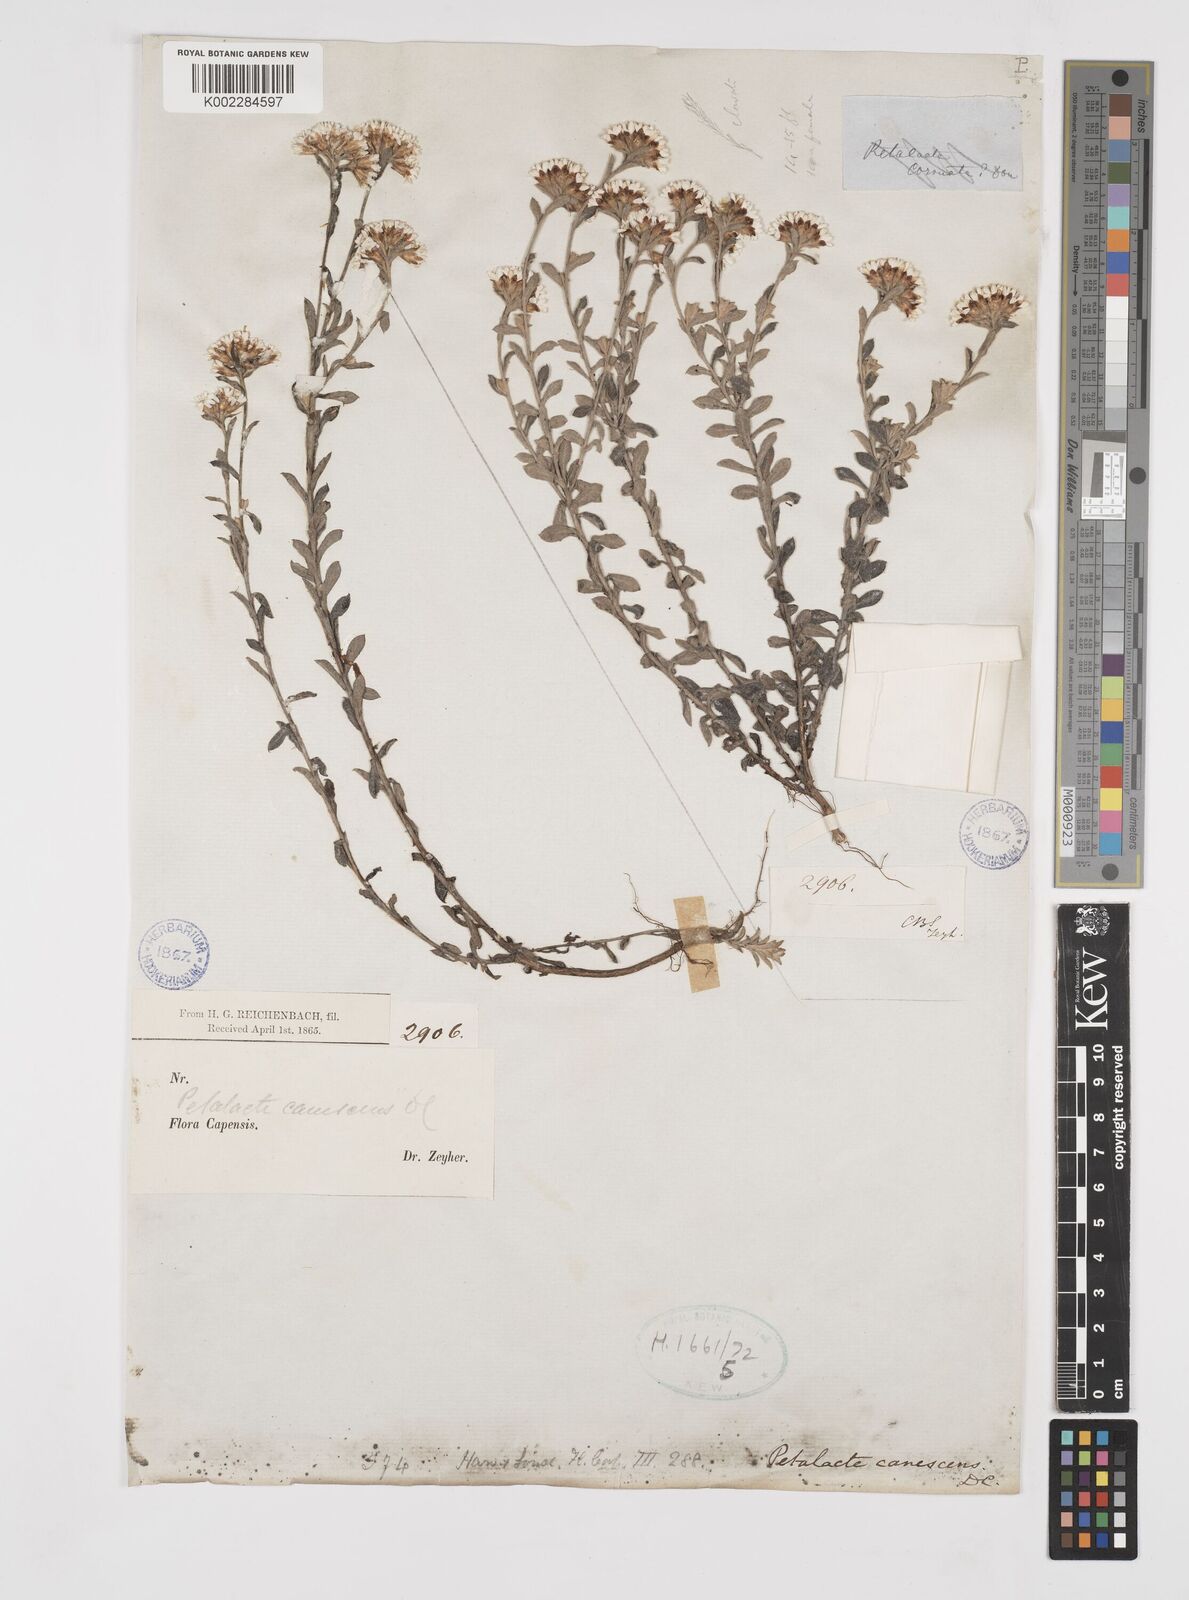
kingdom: Plantae
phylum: Tracheophyta
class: Magnoliopsida
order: Asterales
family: Asteraceae
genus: Langebergia
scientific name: Langebergia canescens
